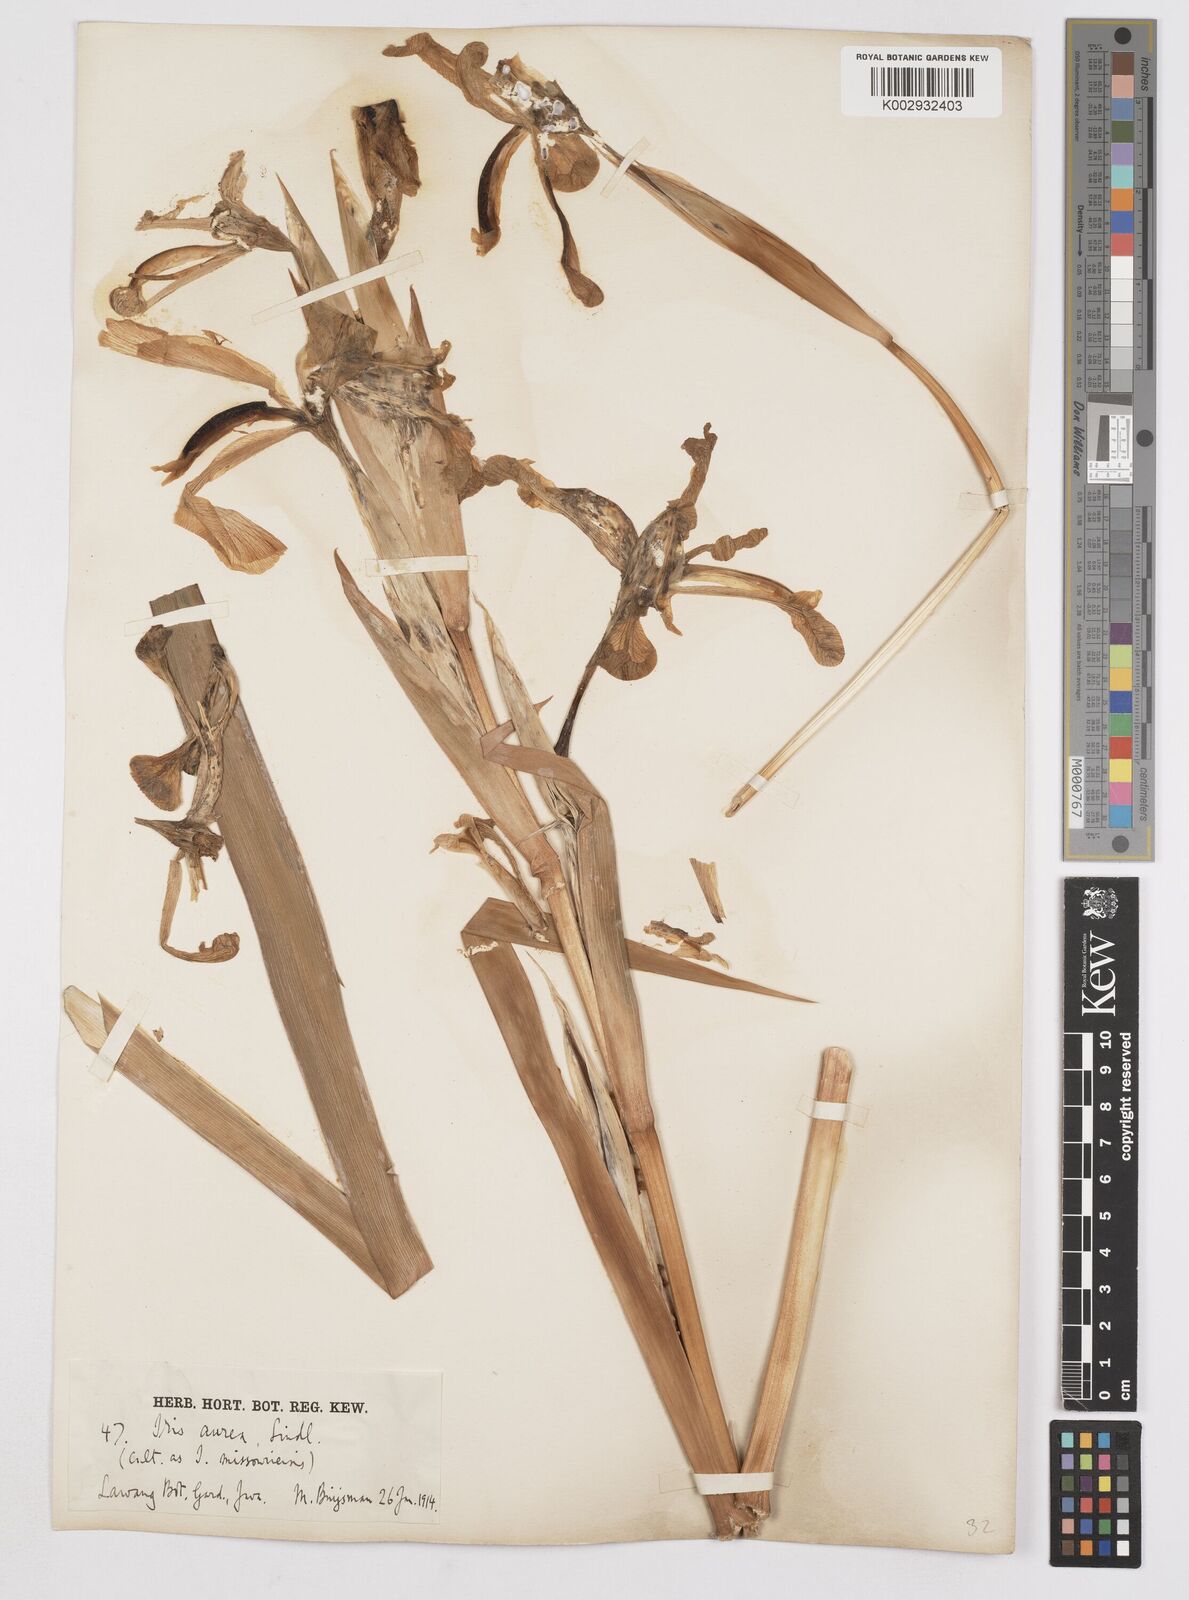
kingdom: Plantae
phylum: Tracheophyta
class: Liliopsida
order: Asparagales
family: Iridaceae
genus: Iris
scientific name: Iris
